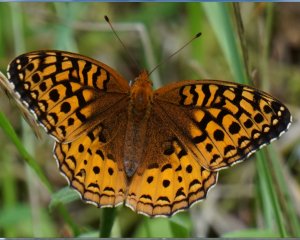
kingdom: Animalia
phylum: Arthropoda
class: Insecta
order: Lepidoptera
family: Nymphalidae
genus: Speyeria
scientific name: Speyeria cybele
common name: Great Spangled Fritillary
